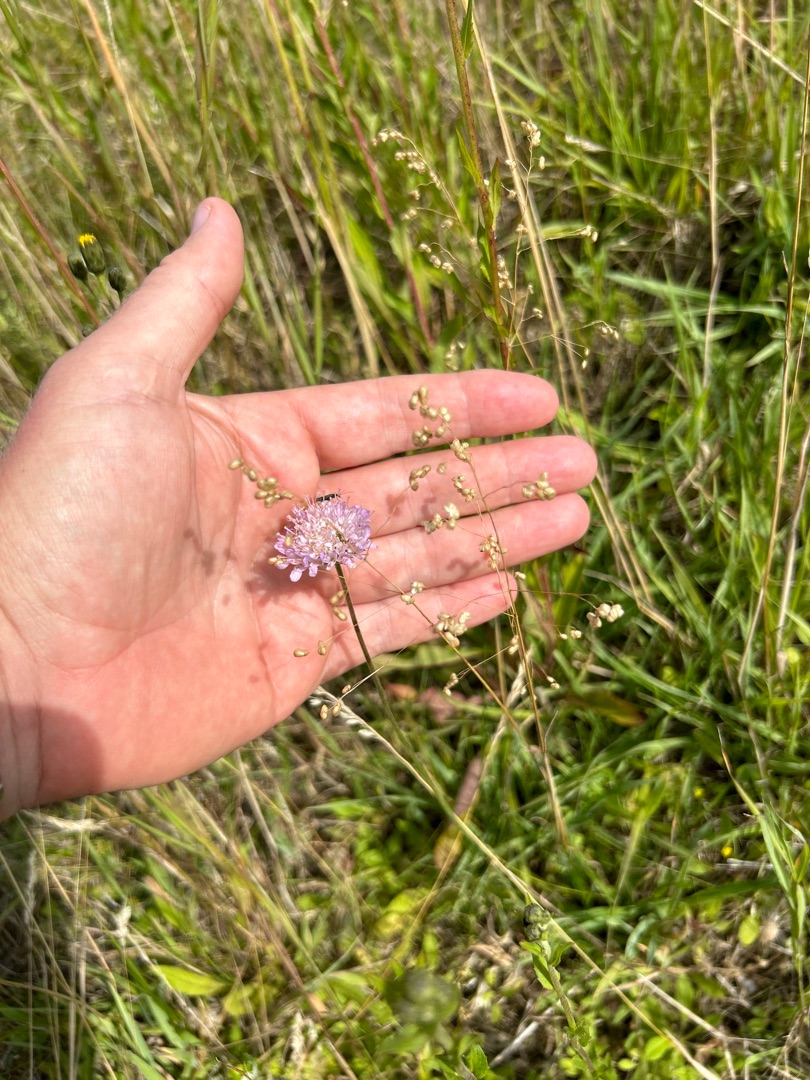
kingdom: Plantae
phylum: Tracheophyta
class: Magnoliopsida
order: Dipsacales
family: Caprifoliaceae
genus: Knautia
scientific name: Knautia arvensis
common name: Blåhat
